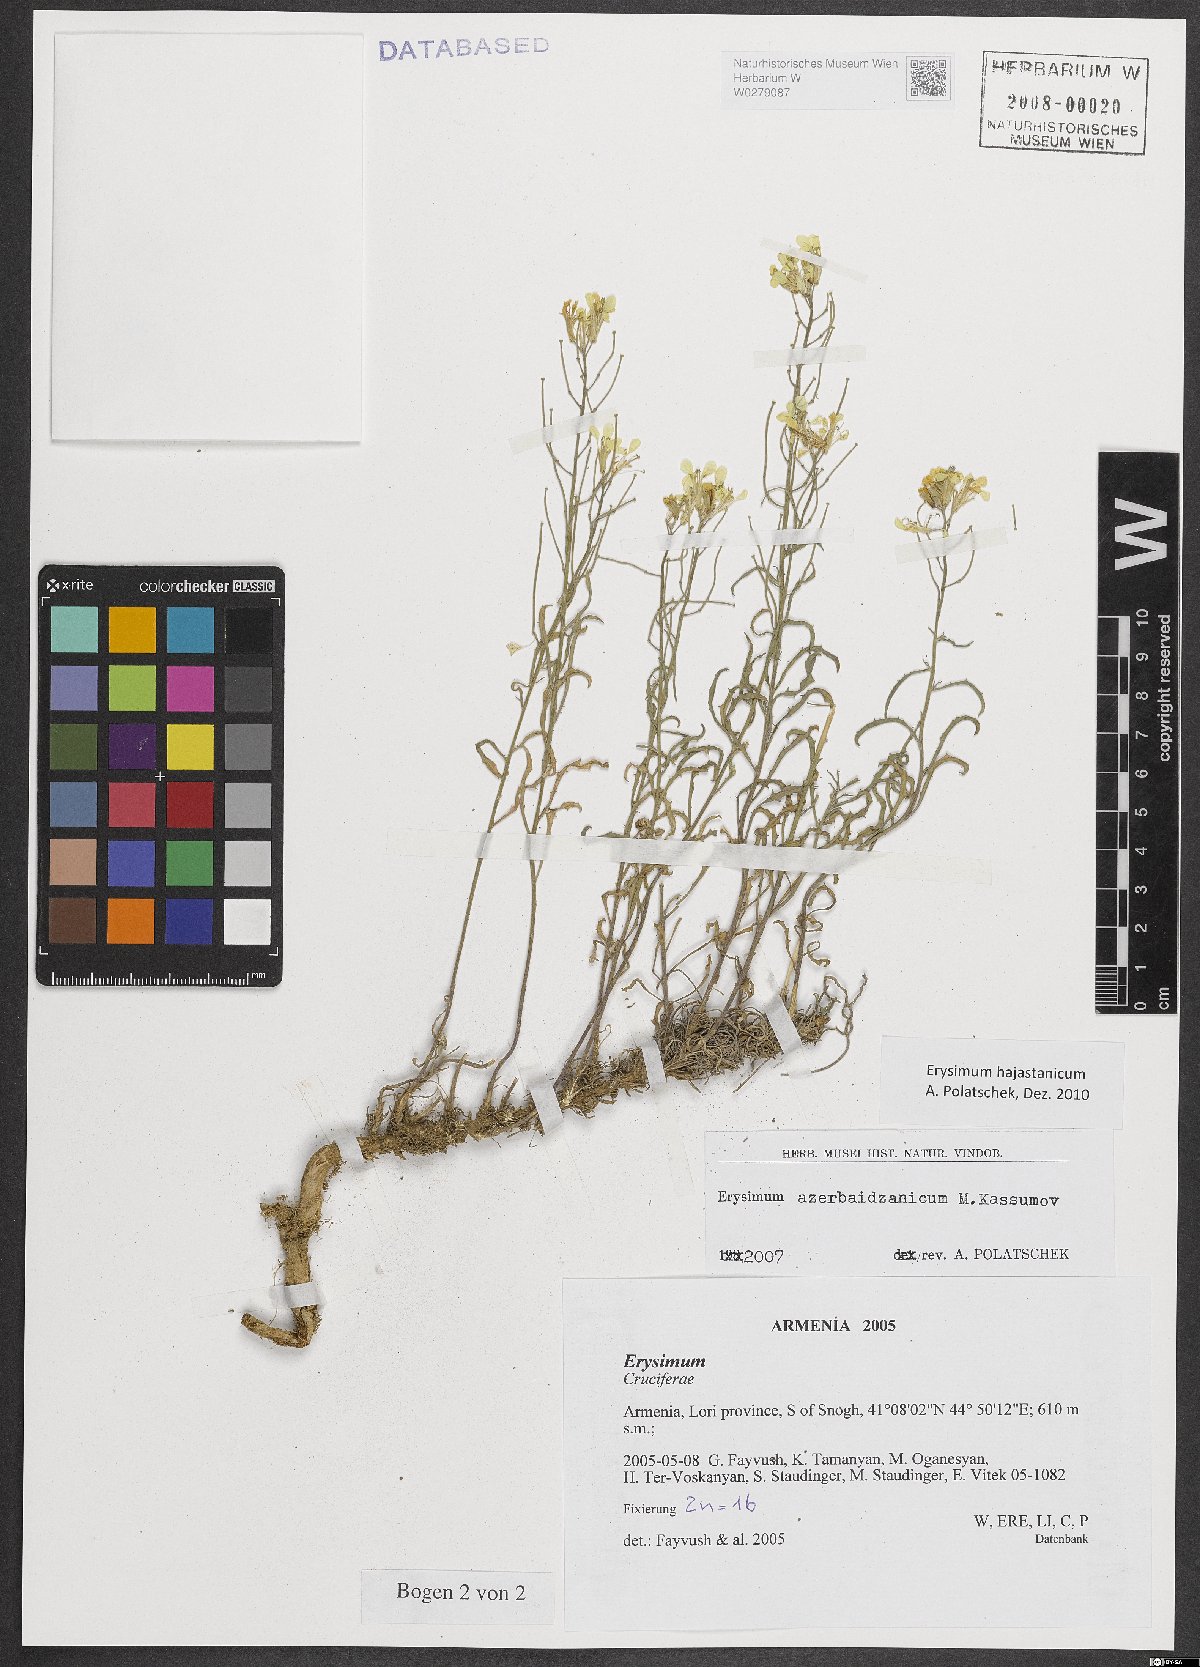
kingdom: Plantae
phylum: Tracheophyta
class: Magnoliopsida
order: Brassicales
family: Brassicaceae
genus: Erysimum
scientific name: Erysimum hajastanicum
